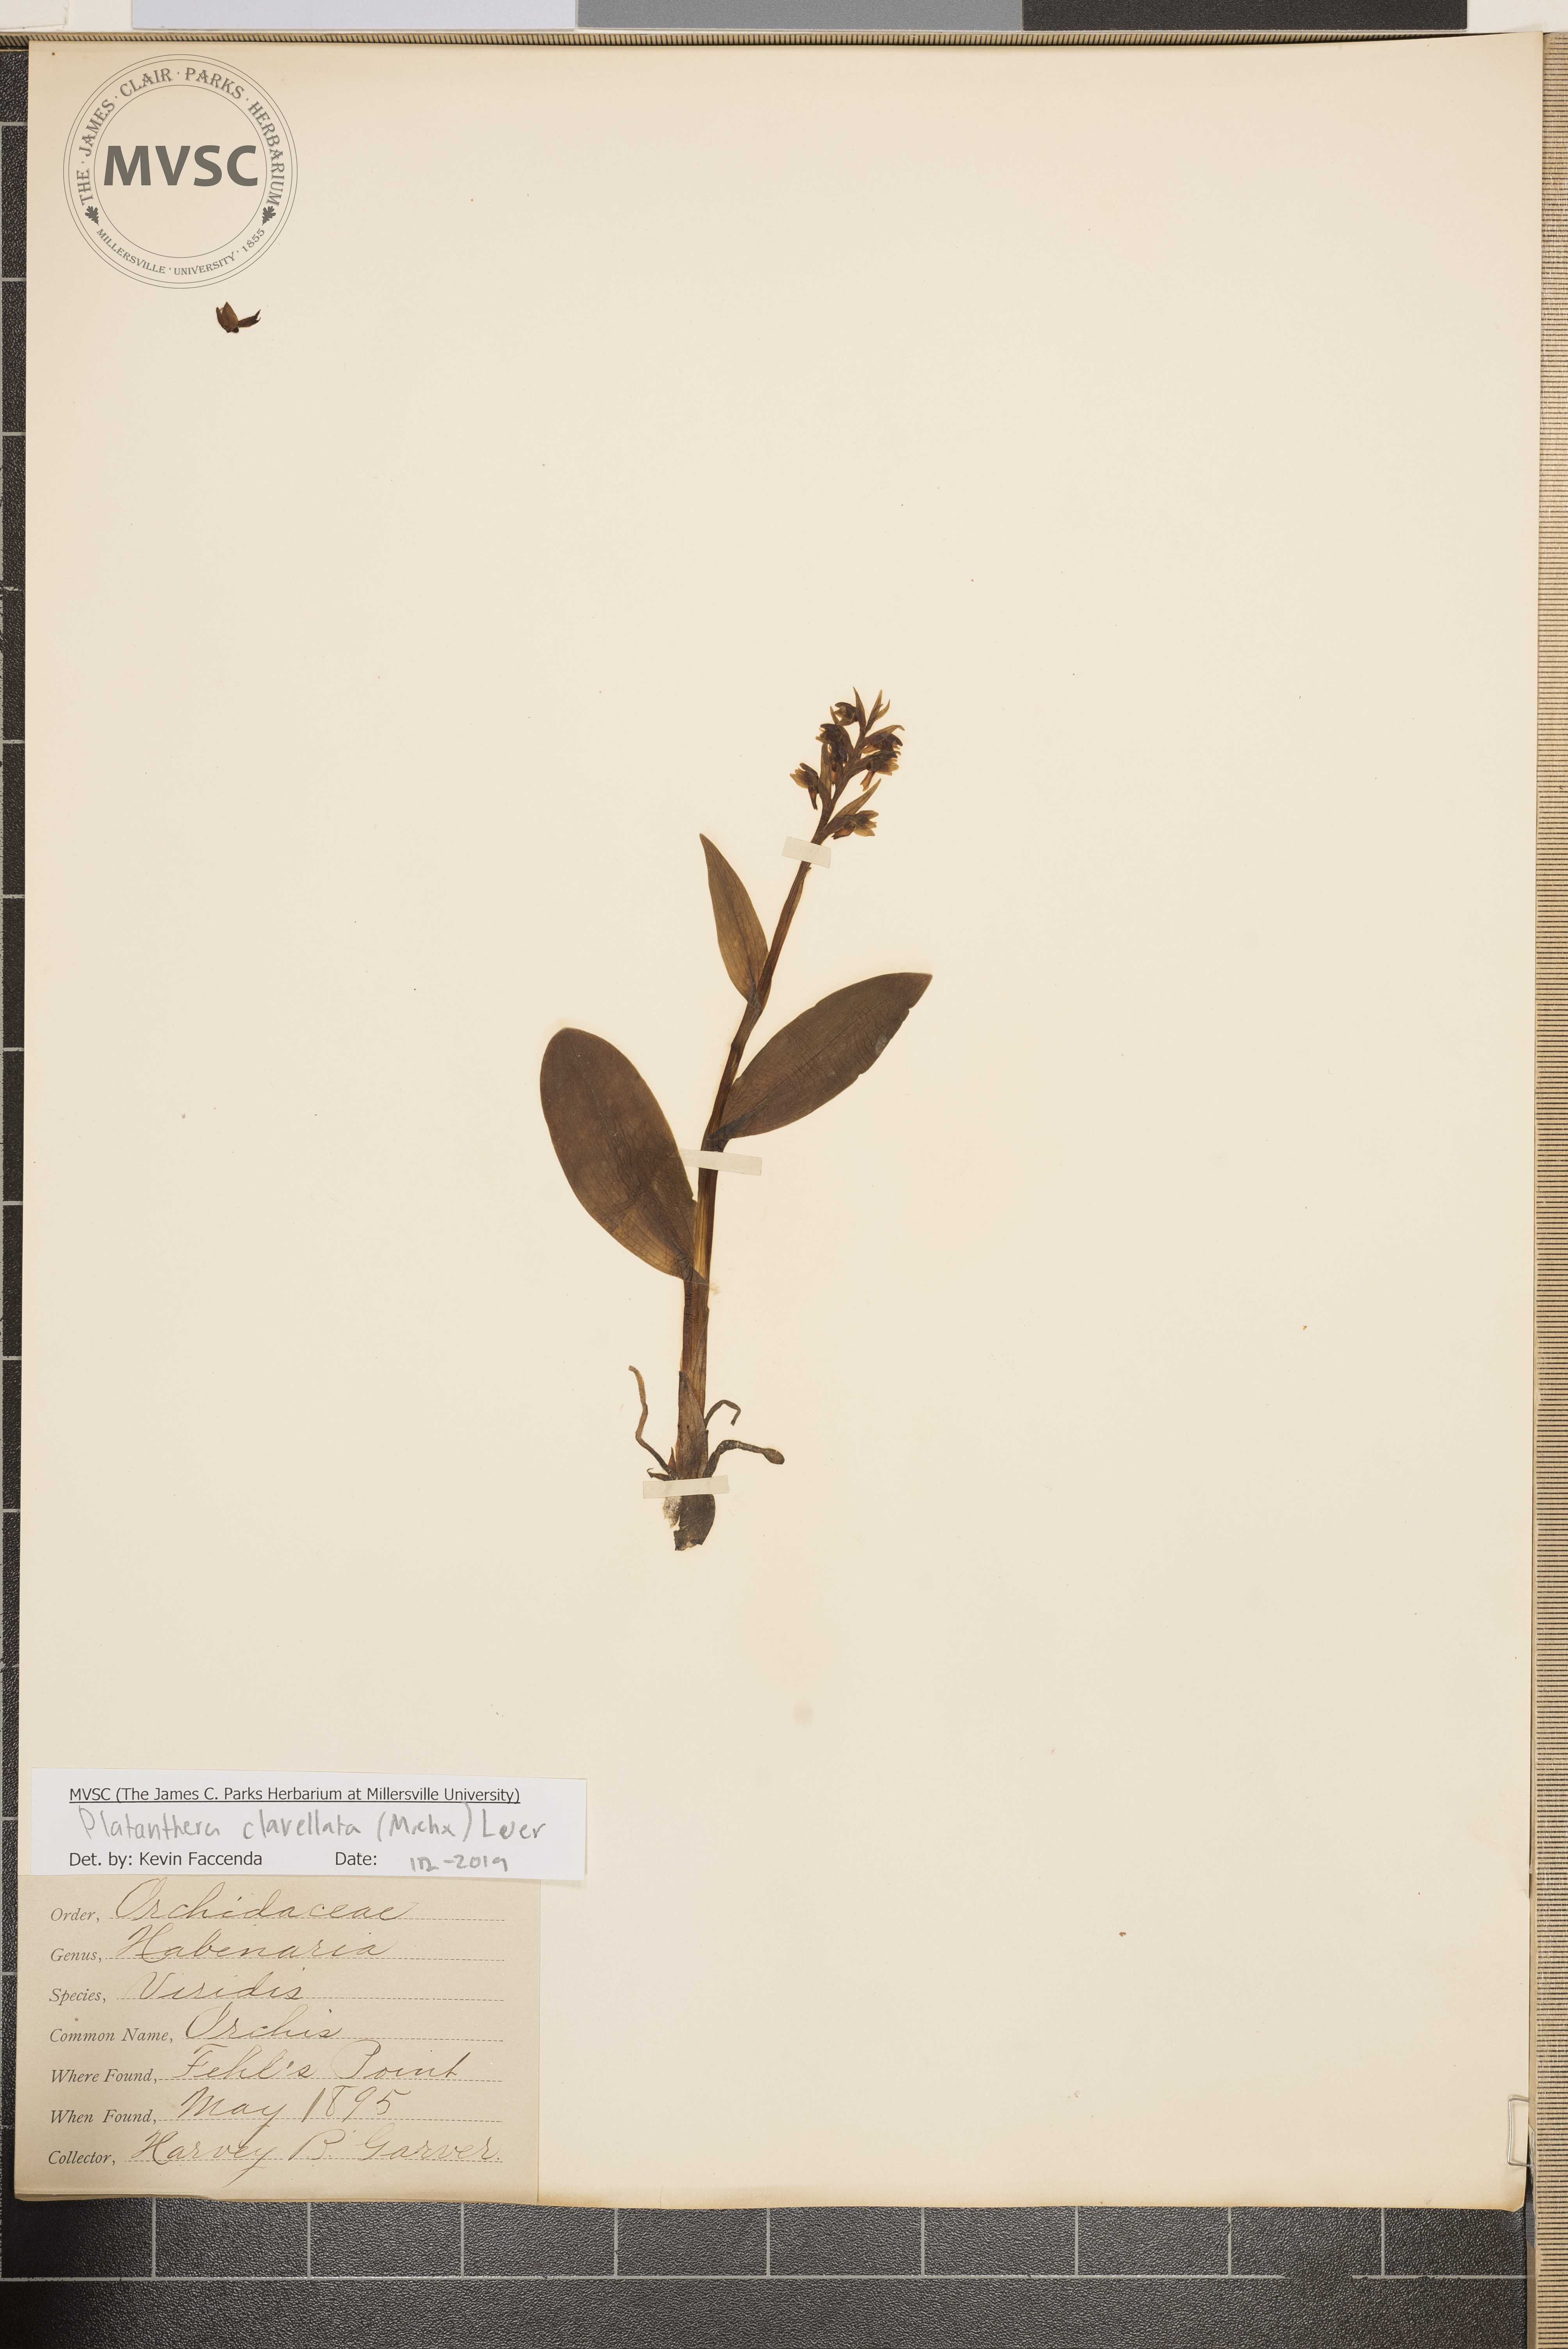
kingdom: Plantae
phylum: Tracheophyta
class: Liliopsida
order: Asparagales
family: Orchidaceae
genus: Platanthera
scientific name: Platanthera clavellata
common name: Orchis
